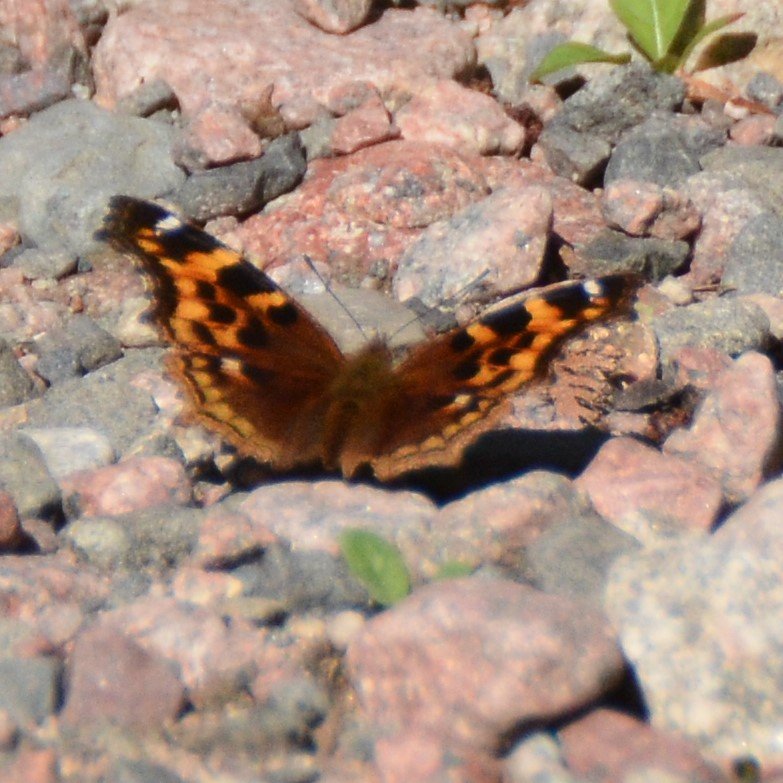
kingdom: Animalia
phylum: Arthropoda
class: Insecta
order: Lepidoptera
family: Nymphalidae
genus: Polygonia
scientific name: Polygonia vaualbum
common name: Compton Tortoiseshell
